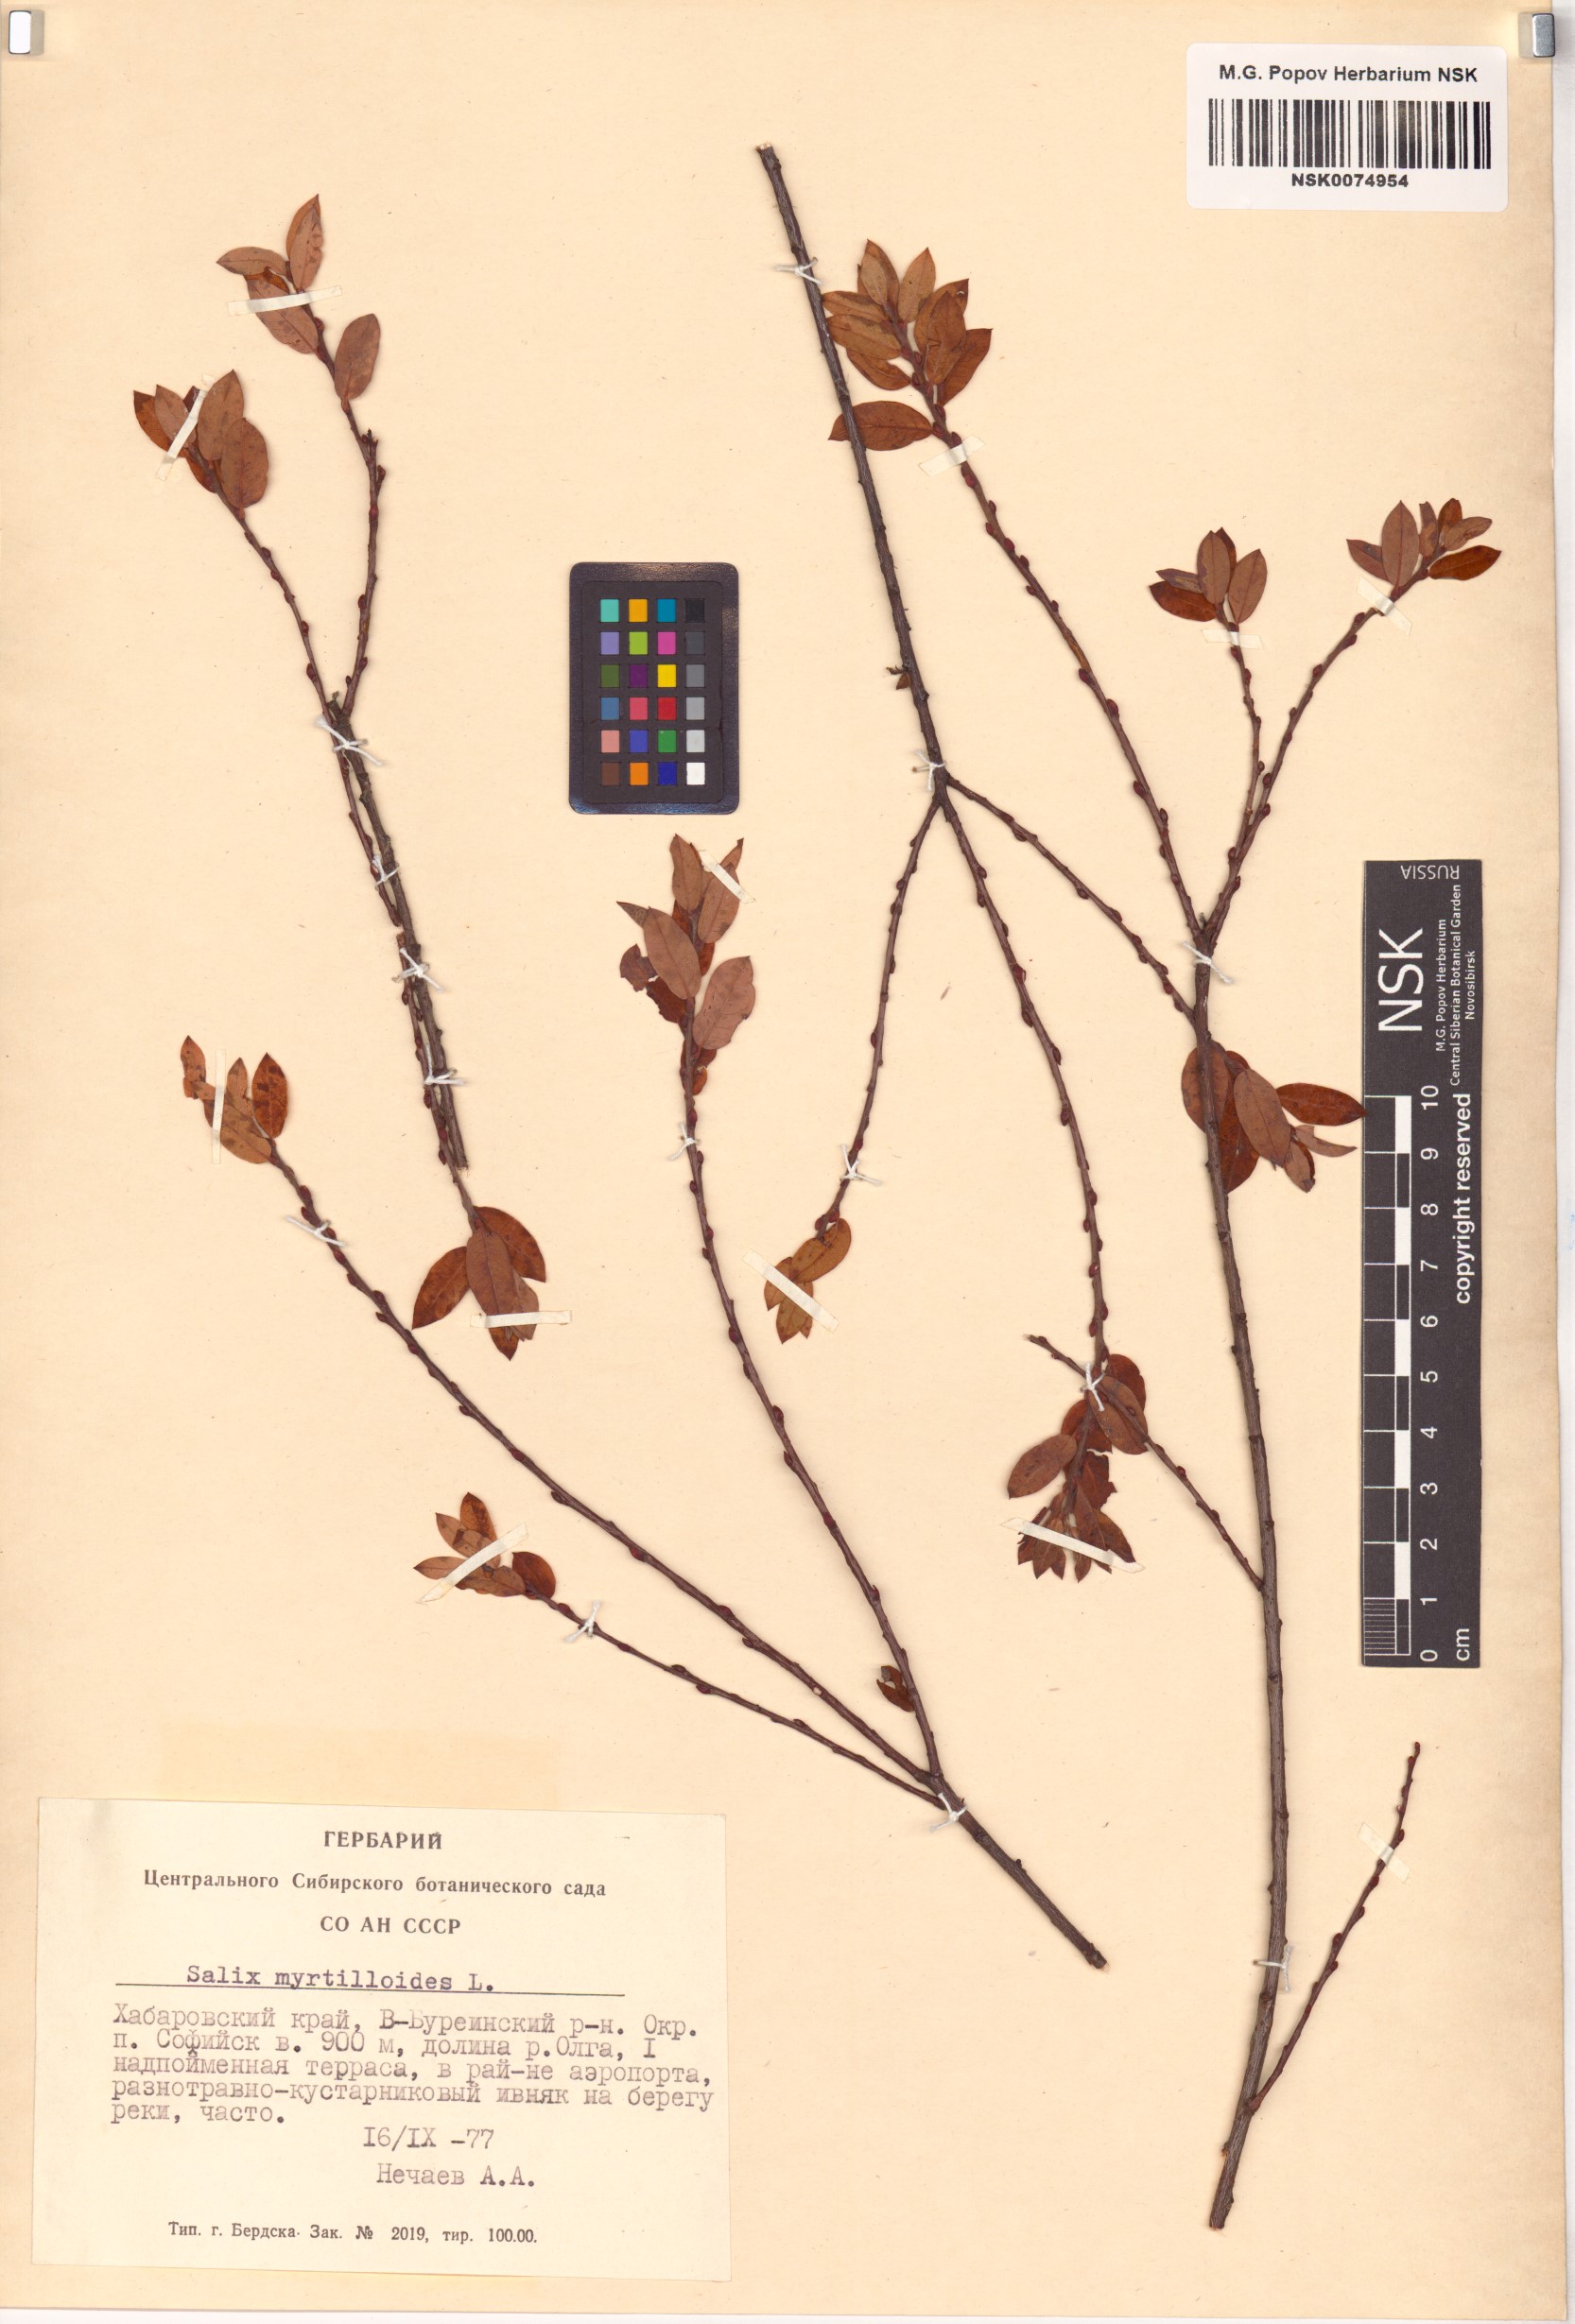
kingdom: Plantae
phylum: Tracheophyta
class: Magnoliopsida
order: Malpighiales
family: Salicaceae
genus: Salix
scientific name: Salix myrtilloides
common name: Myrtle-leaved willow
